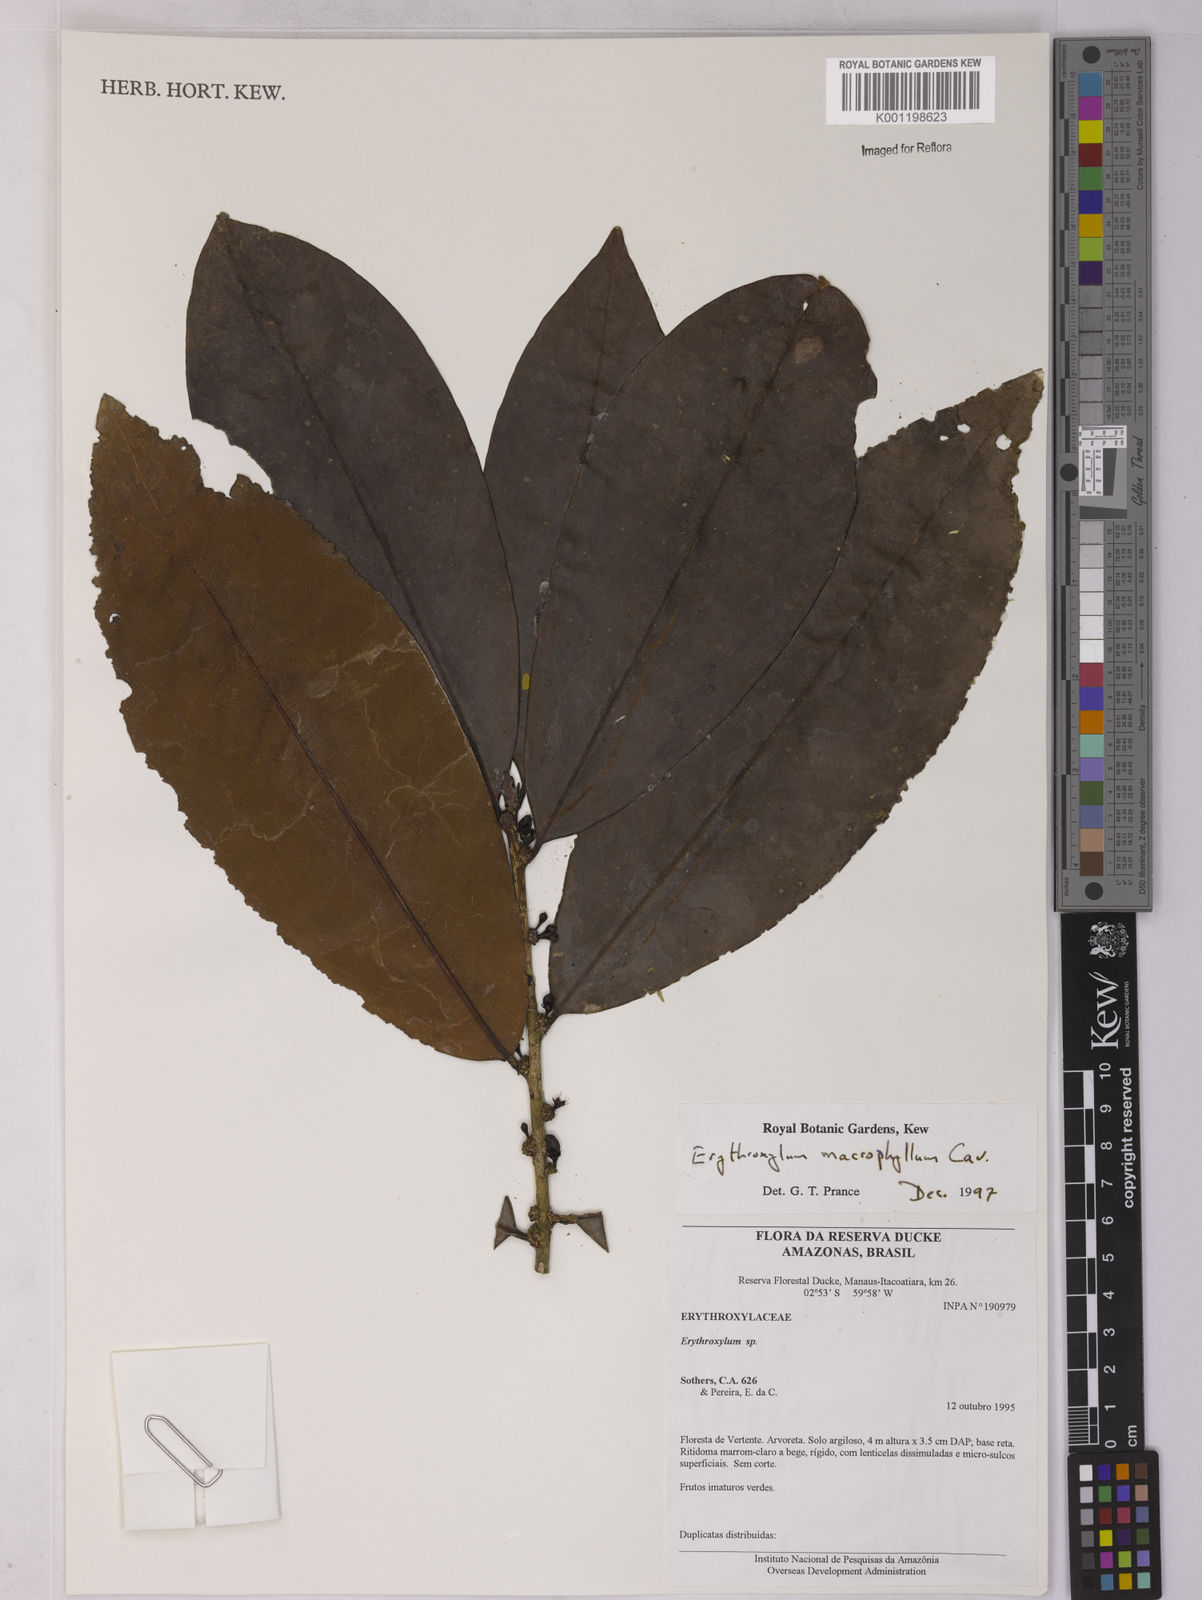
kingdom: Plantae
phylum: Tracheophyta
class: Magnoliopsida
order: Malpighiales
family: Erythroxylaceae
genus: Erythroxylum
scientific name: Erythroxylum macrophyllum
